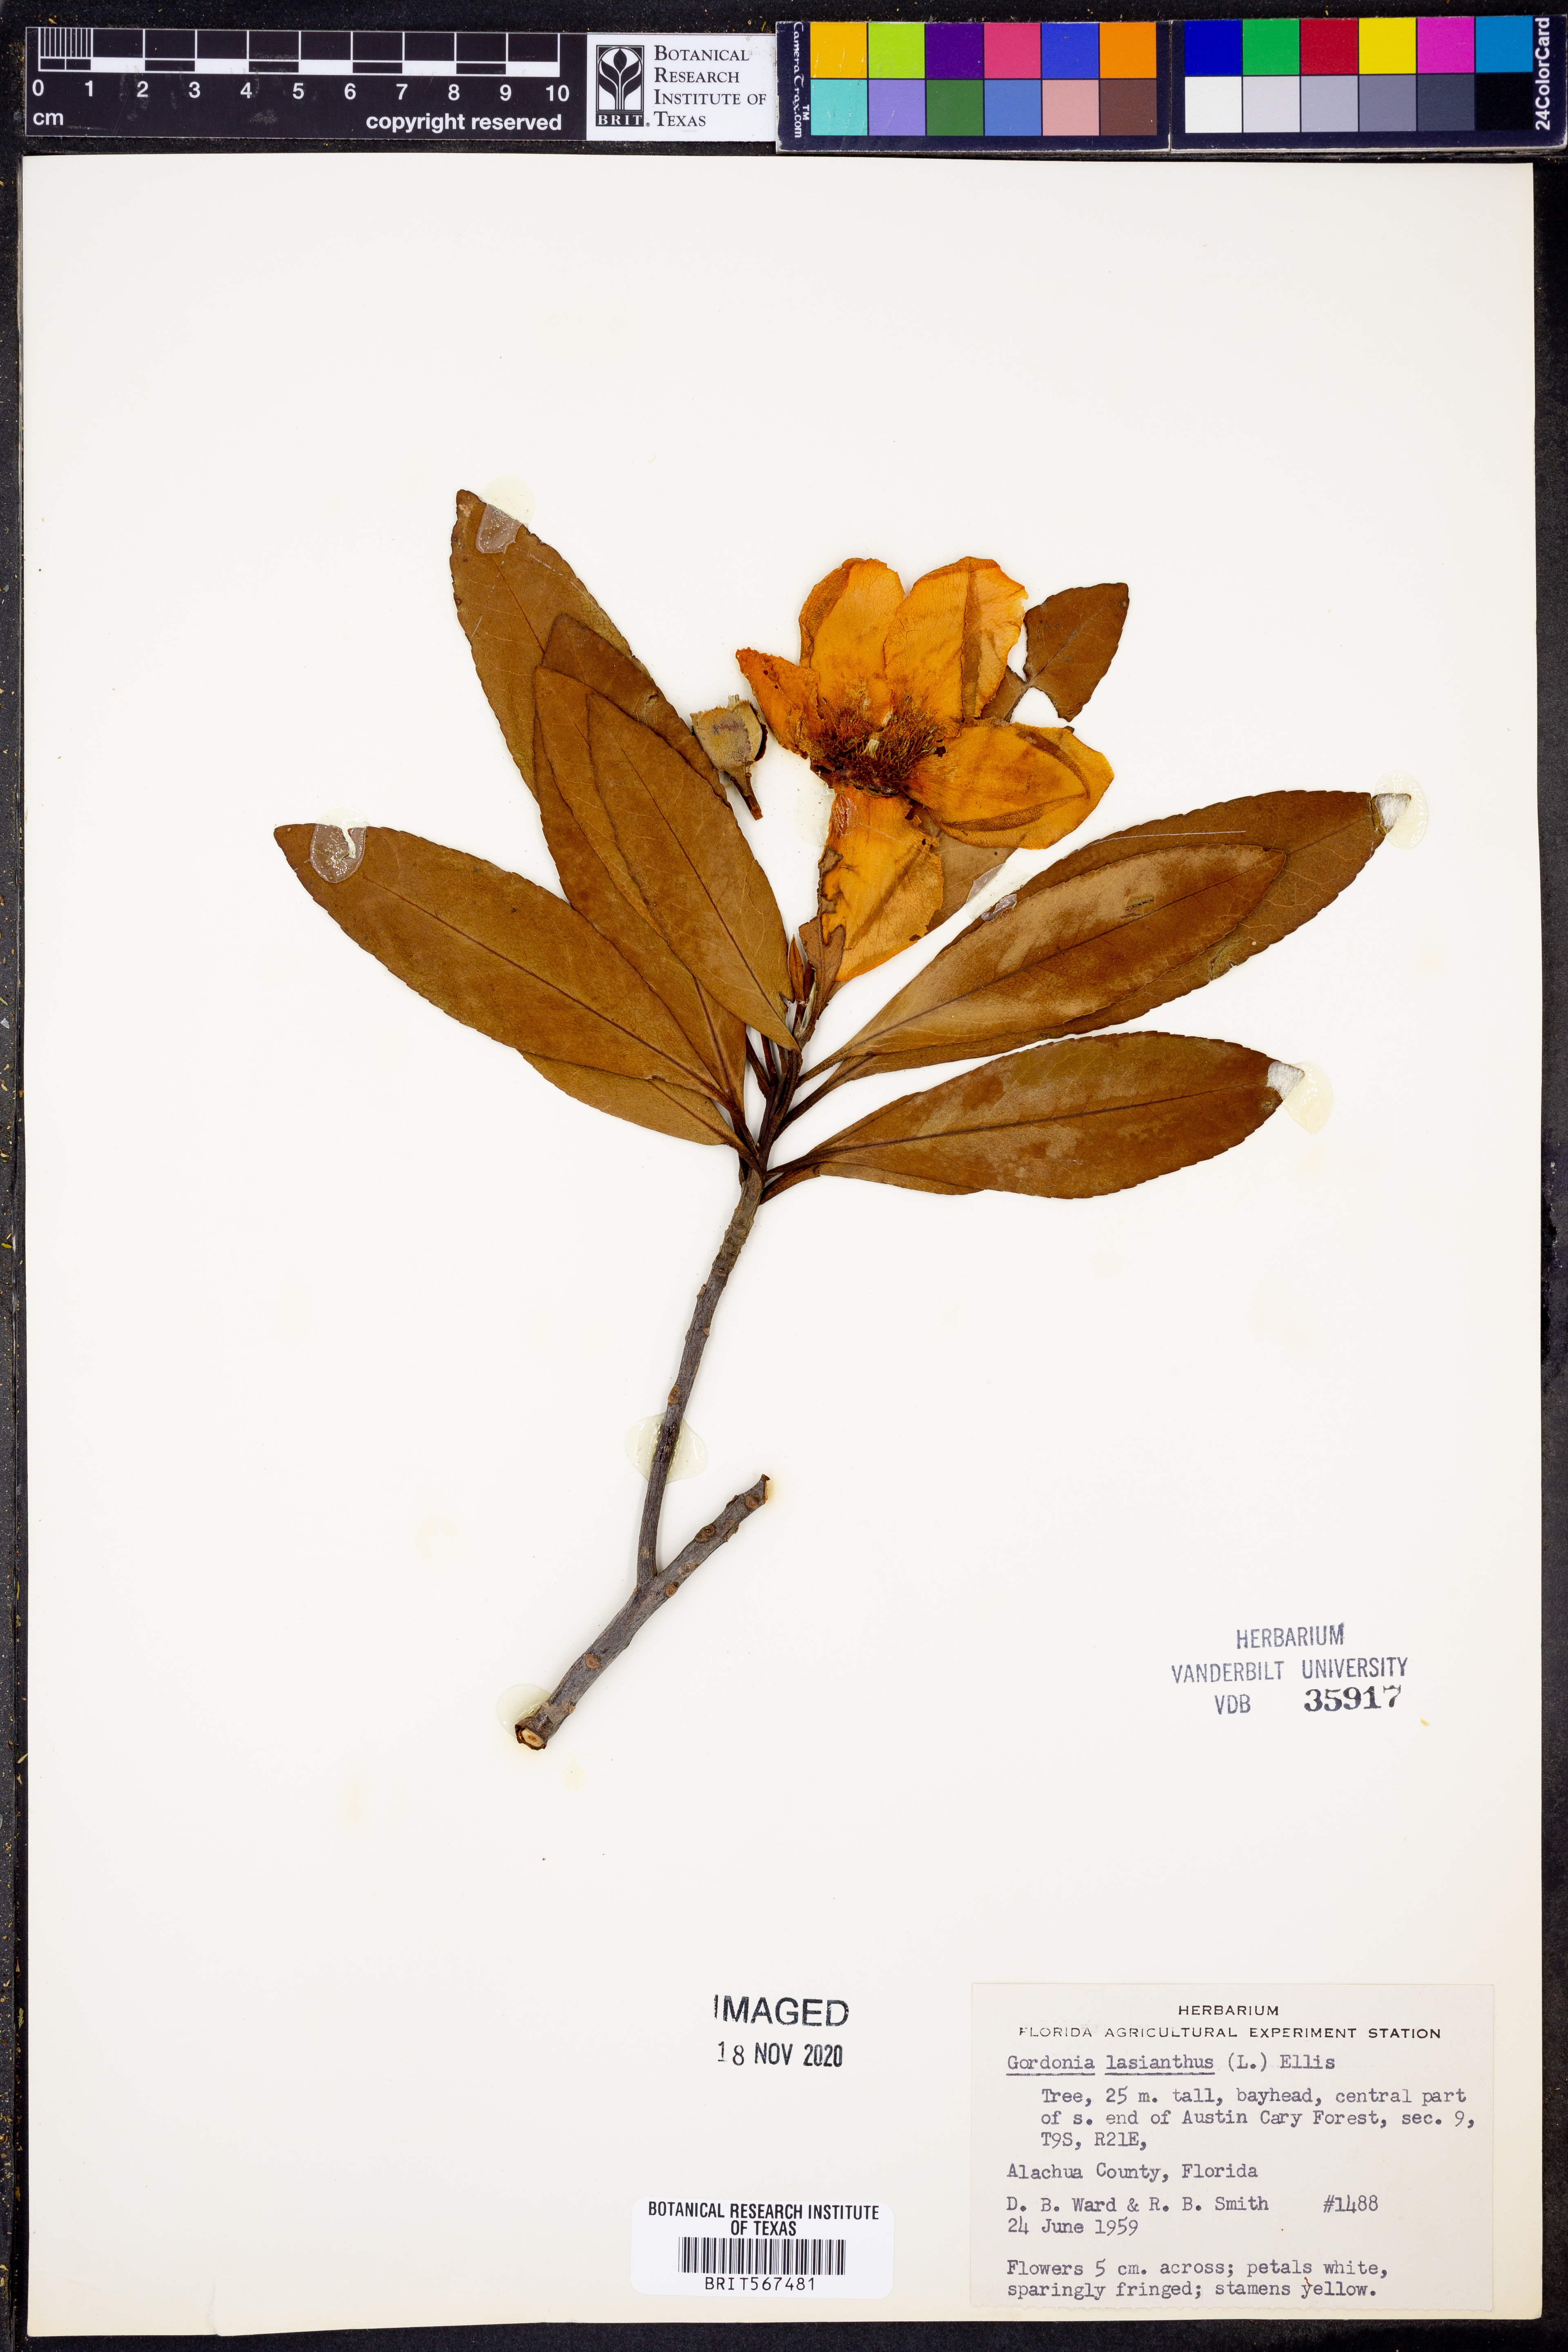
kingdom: Plantae
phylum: Tracheophyta
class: Magnoliopsida
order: Ericales
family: Theaceae
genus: Gordonia
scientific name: Gordonia lasianthus
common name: Loblolly bay
